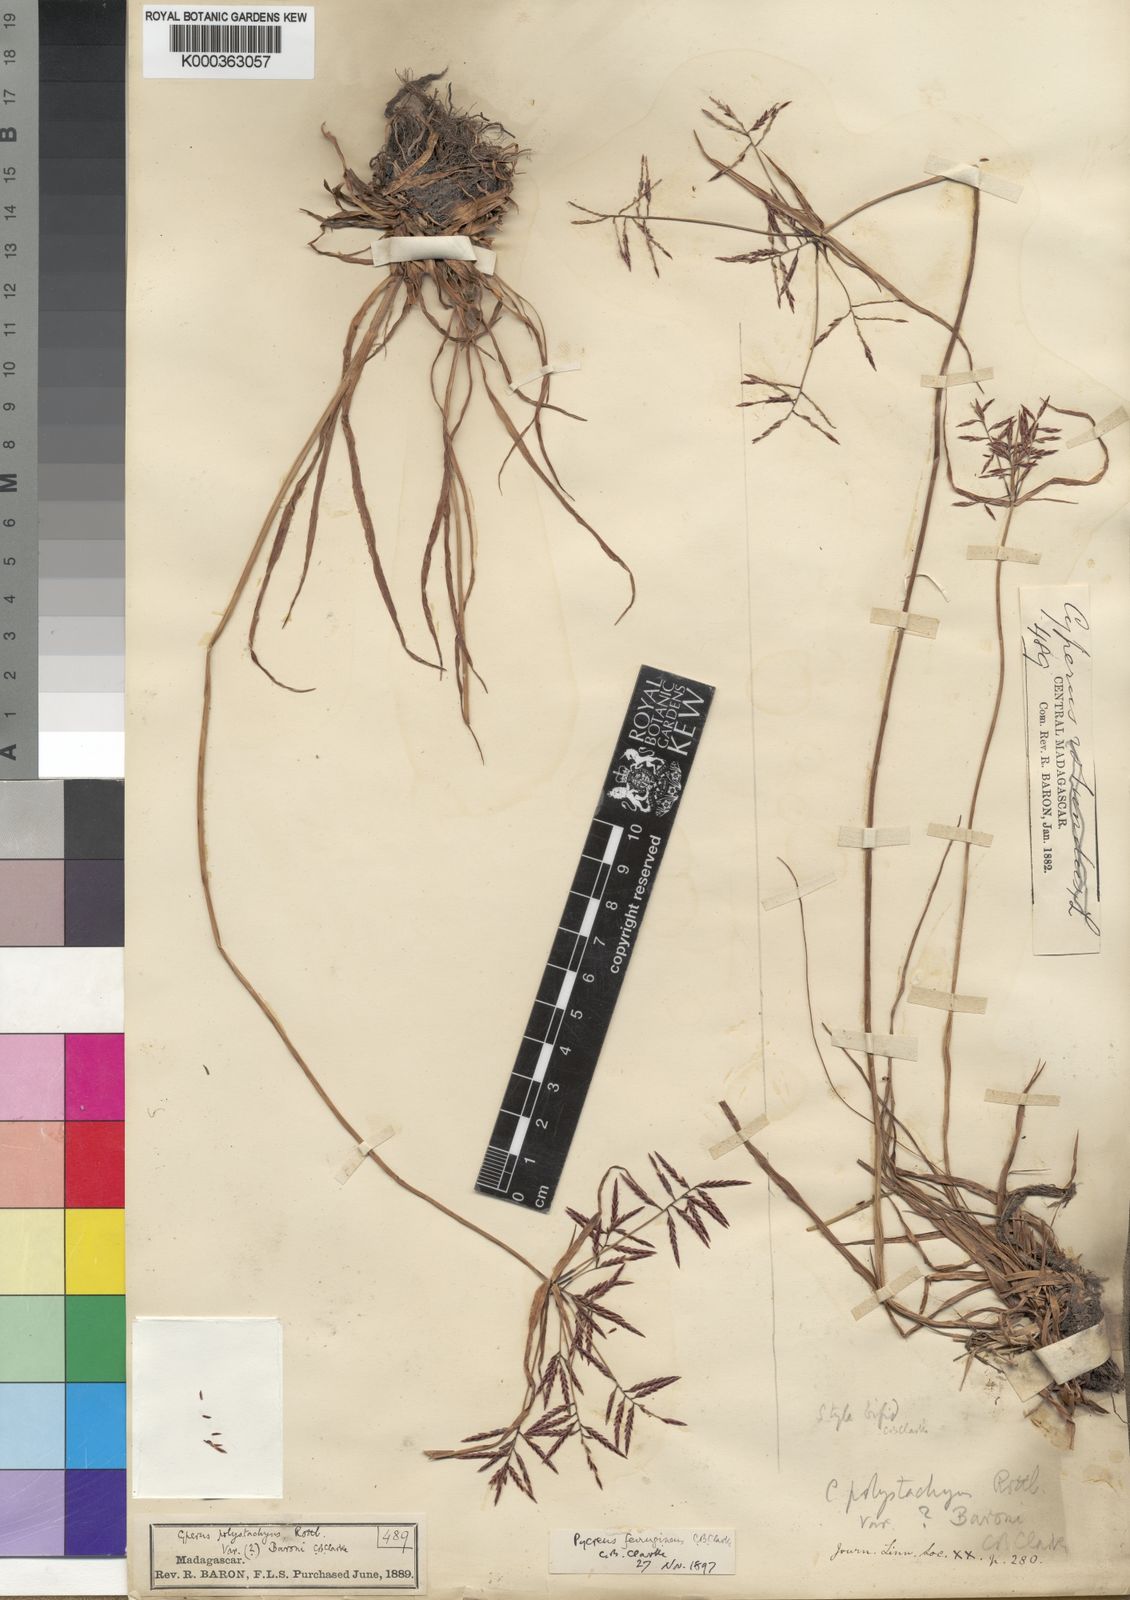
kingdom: Plantae
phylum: Tracheophyta
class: Liliopsida
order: Poales
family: Cyperaceae
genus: Cyperus
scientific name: Cyperus intactus
